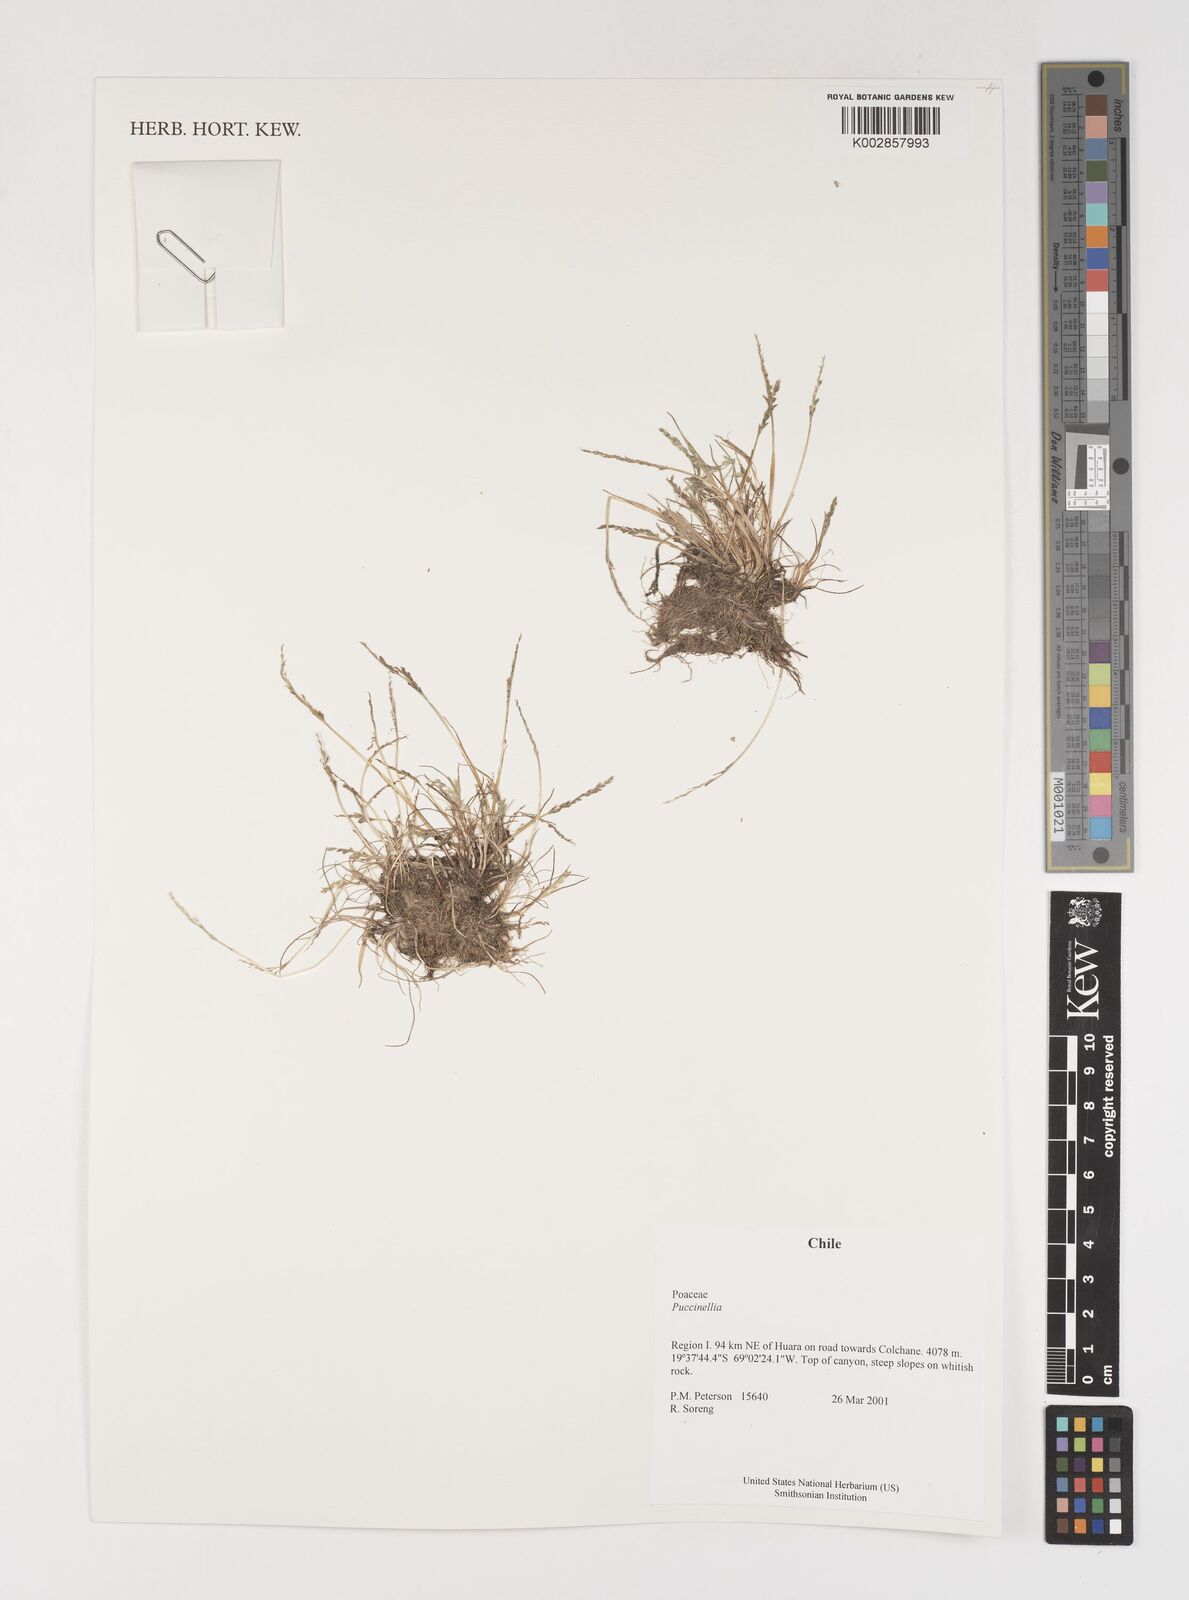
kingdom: Plantae
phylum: Tracheophyta
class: Liliopsida
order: Poales
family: Poaceae
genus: Puccinellia
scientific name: Puccinellia
